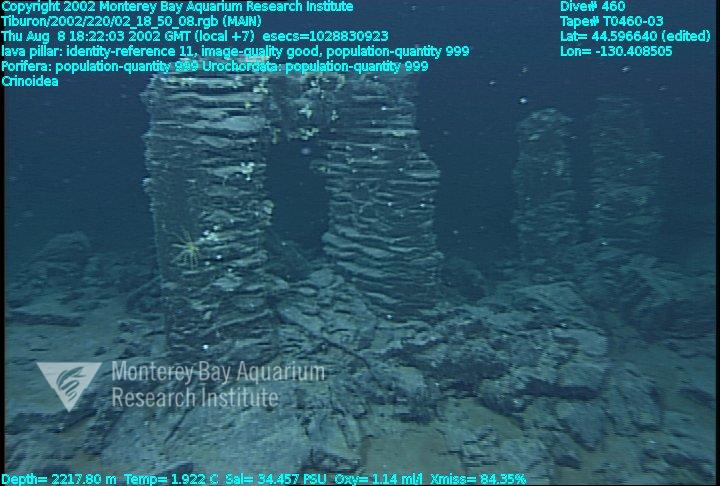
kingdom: Animalia
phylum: Porifera
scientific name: Porifera
